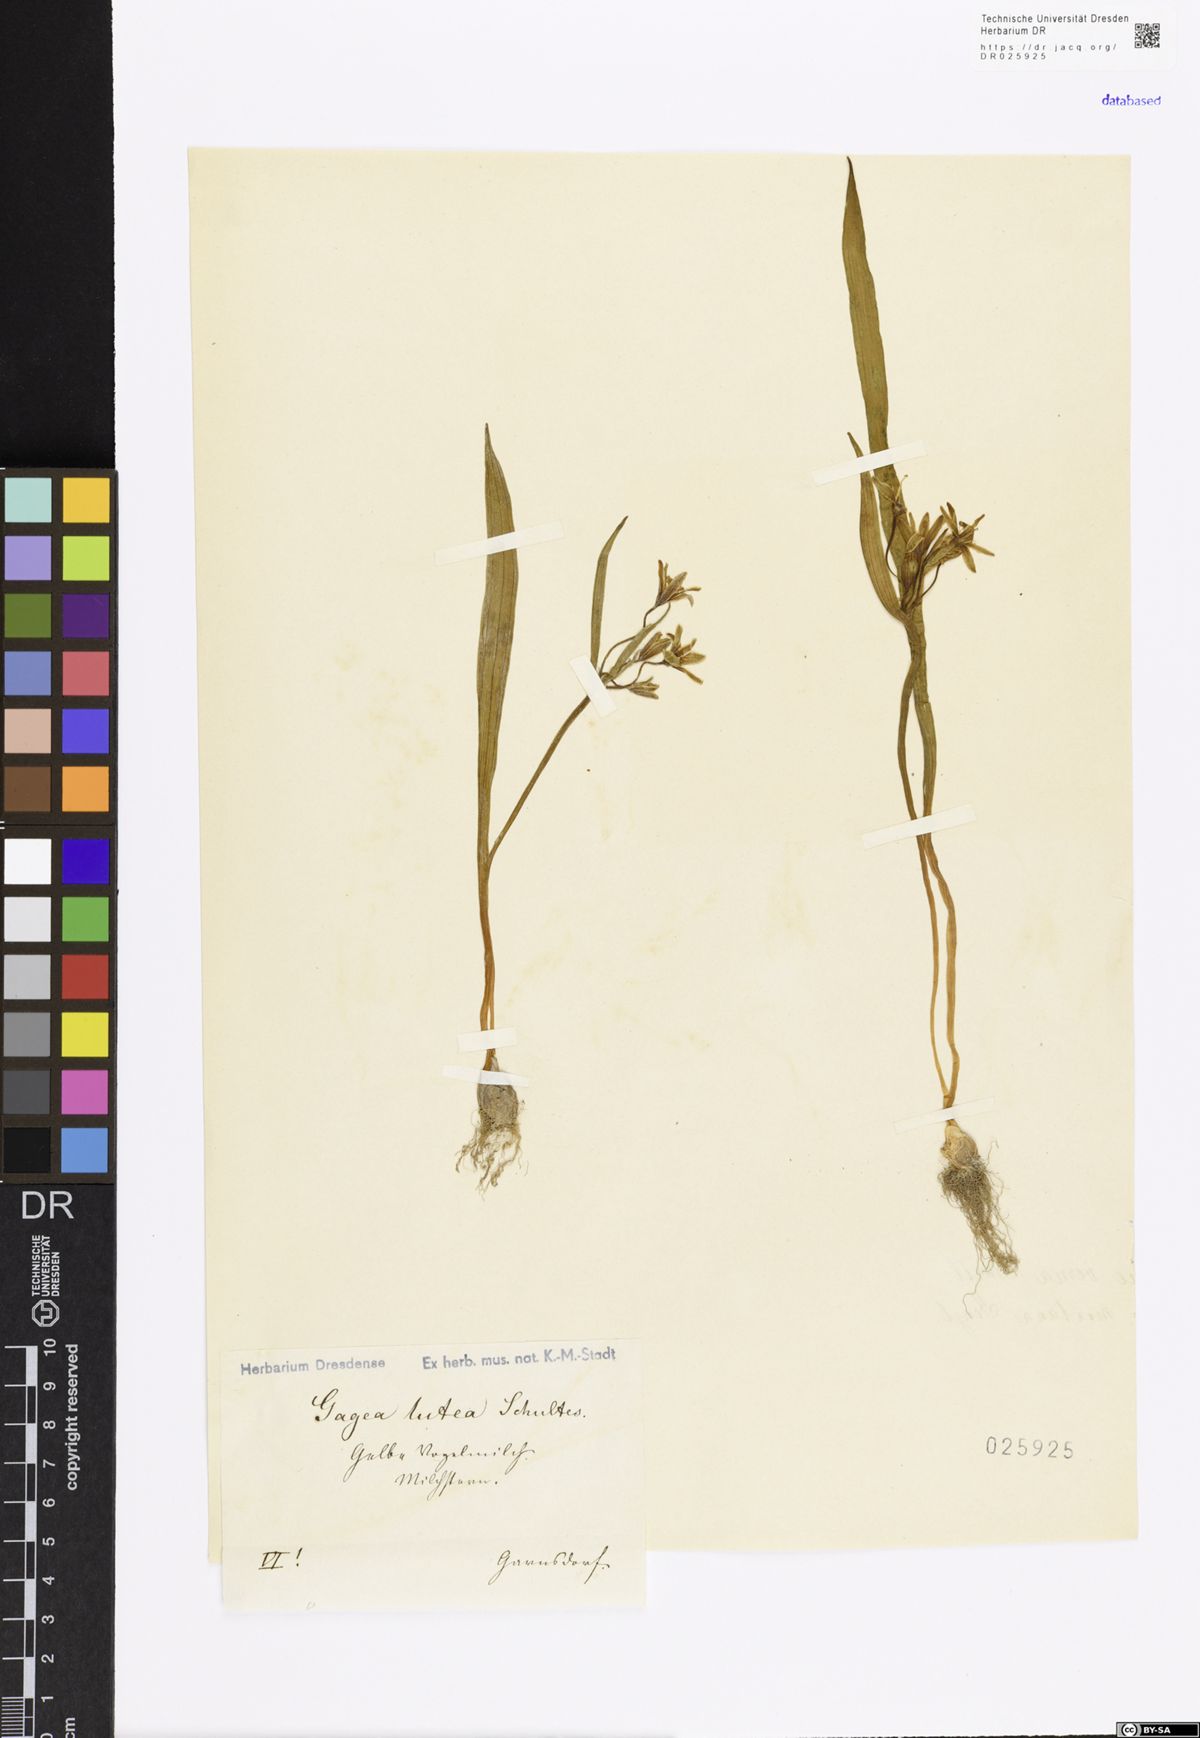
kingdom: Plantae
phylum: Tracheophyta
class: Liliopsida
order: Liliales
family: Liliaceae
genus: Gagea
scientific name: Gagea lutea
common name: Yellow star-of-bethlehem
